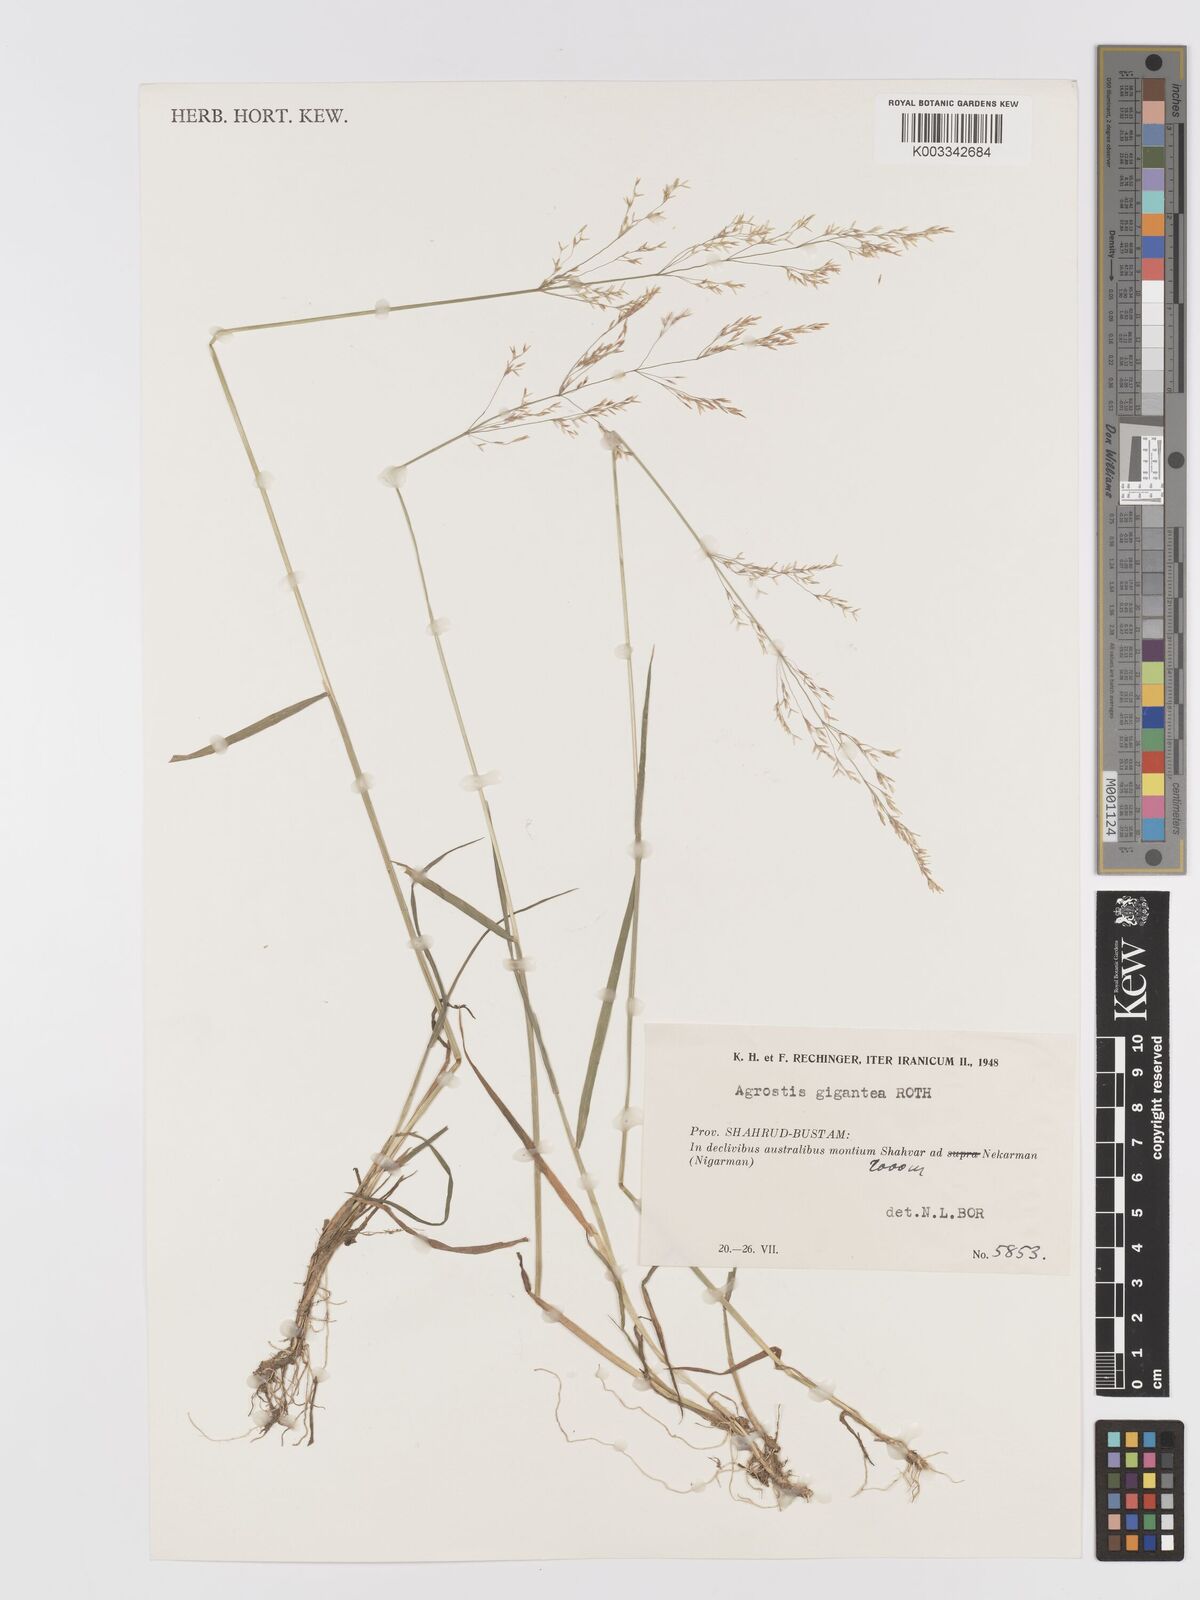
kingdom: Plantae
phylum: Tracheophyta
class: Liliopsida
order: Poales
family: Poaceae
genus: Agrostis
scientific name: Agrostis gigantea
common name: Black bent
